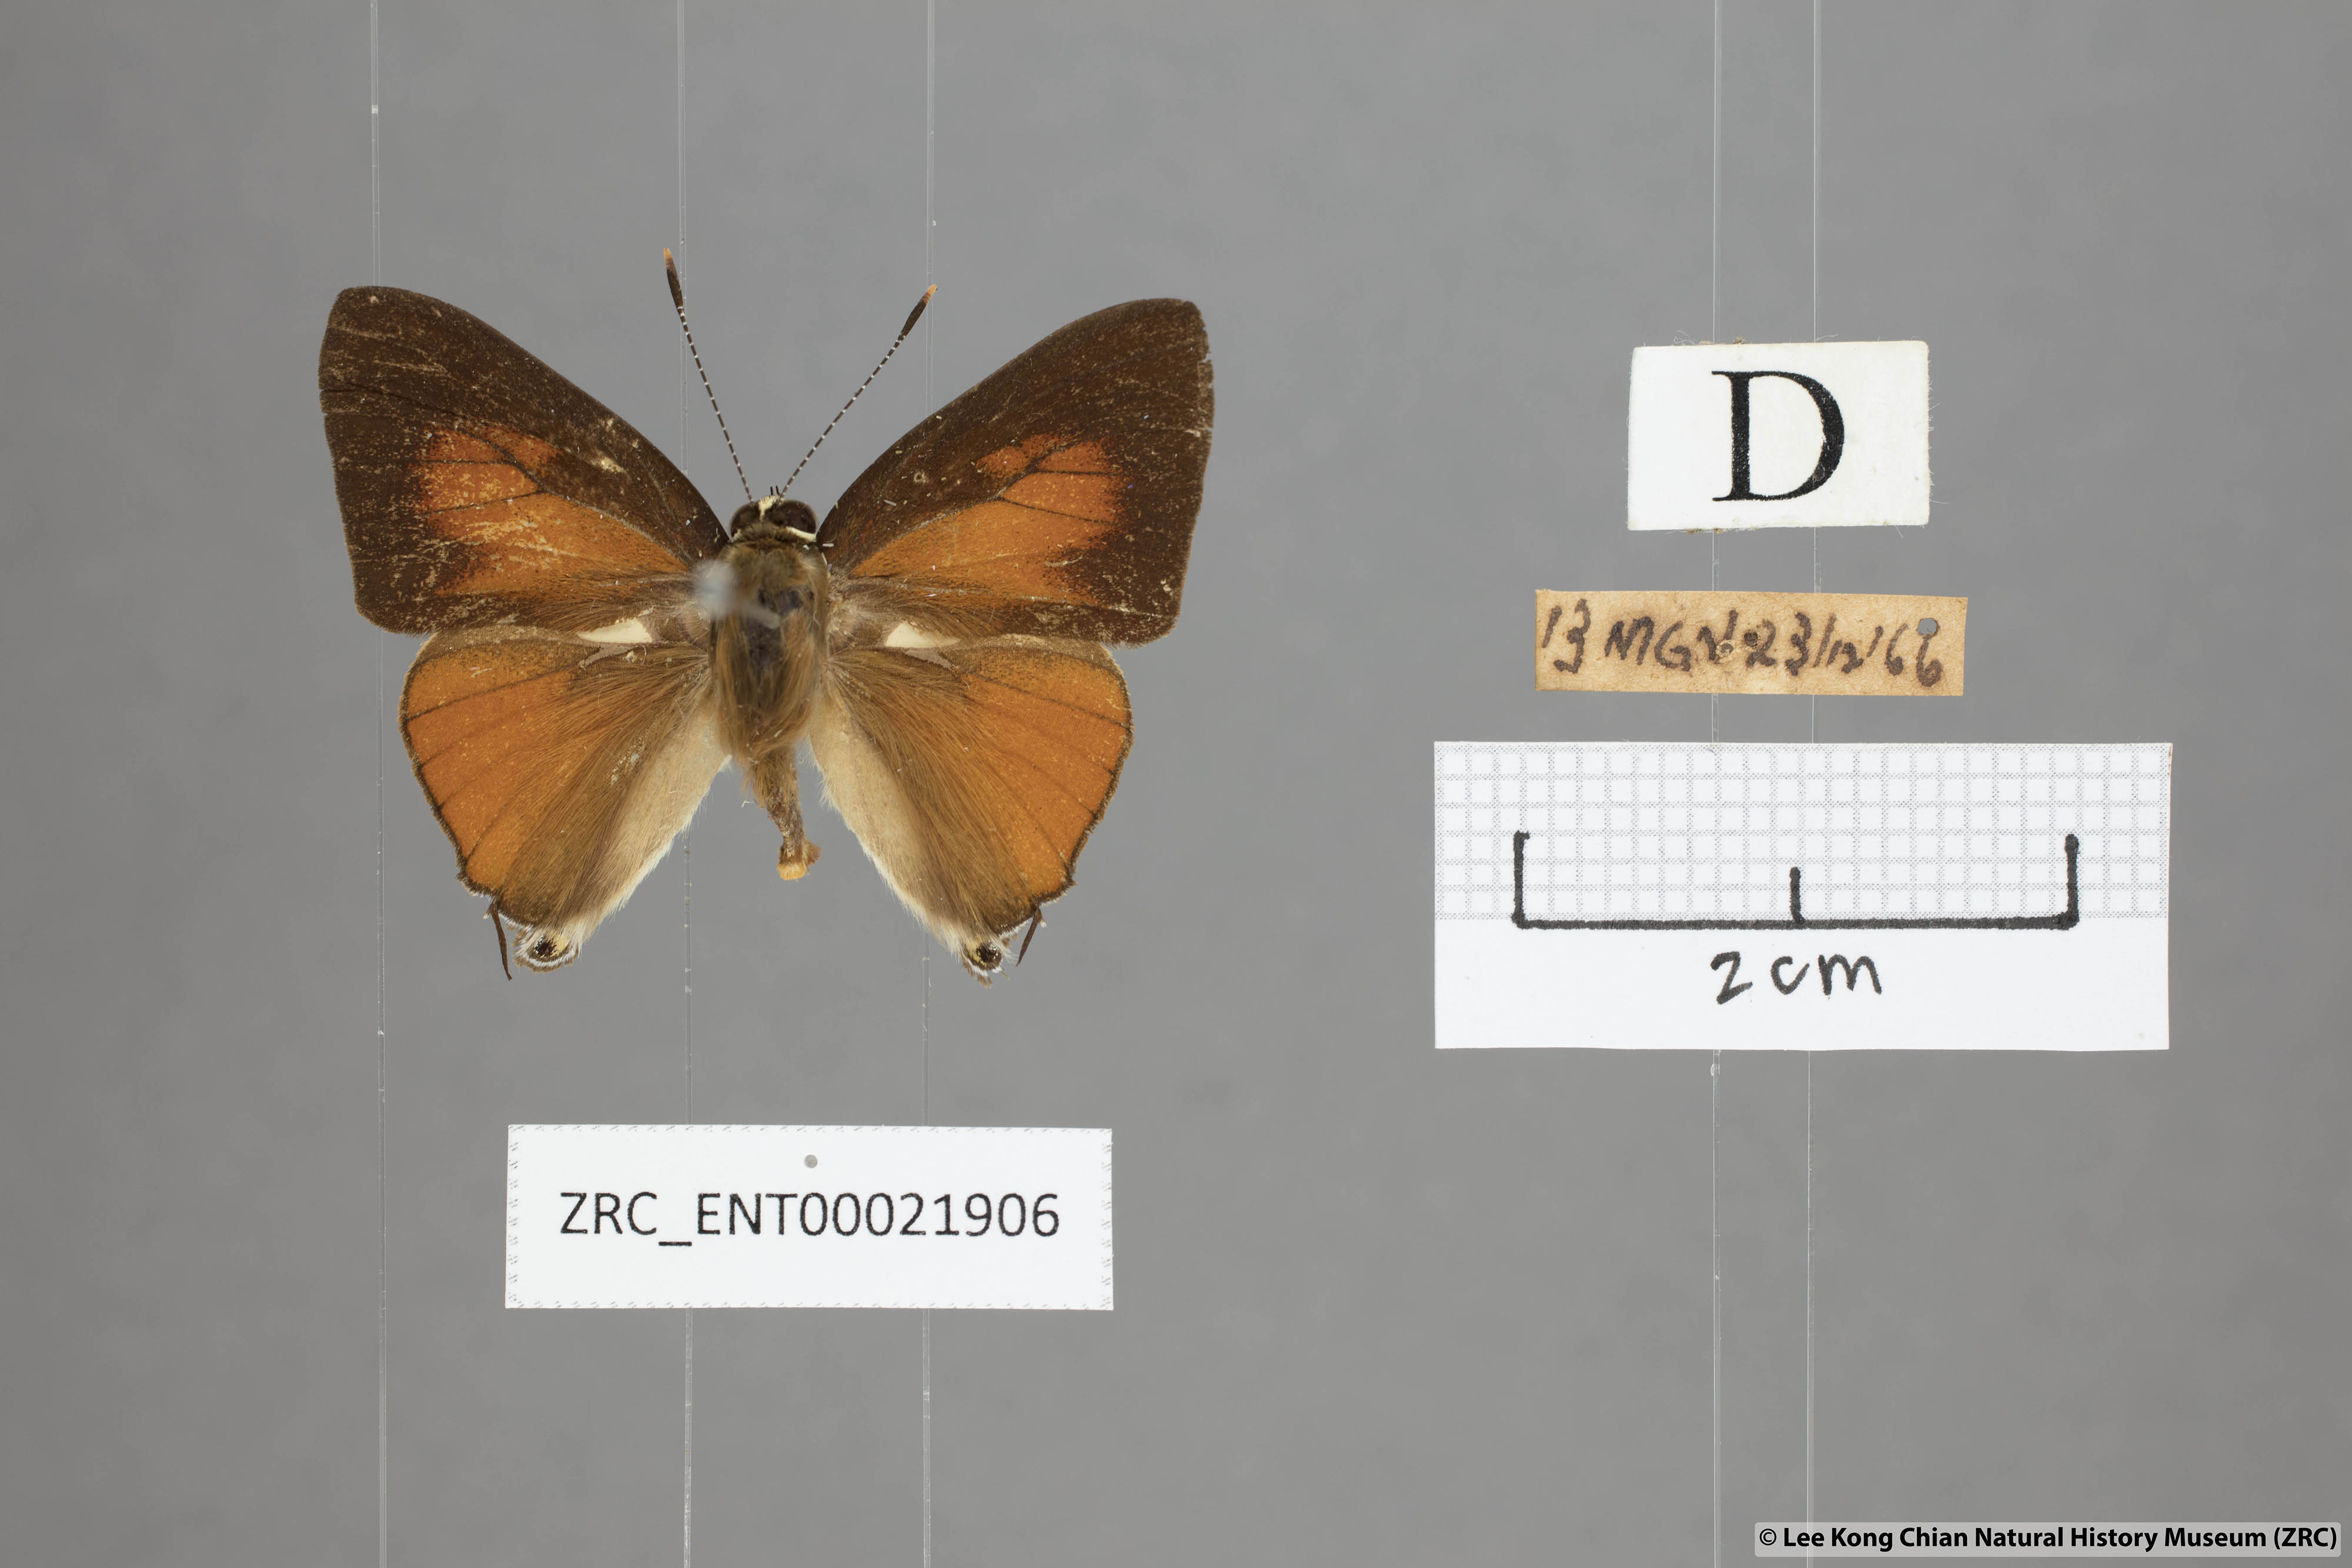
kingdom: Animalia
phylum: Arthropoda
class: Insecta
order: Lepidoptera
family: Lycaenidae
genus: Rapala
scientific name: Rapala suffusa
